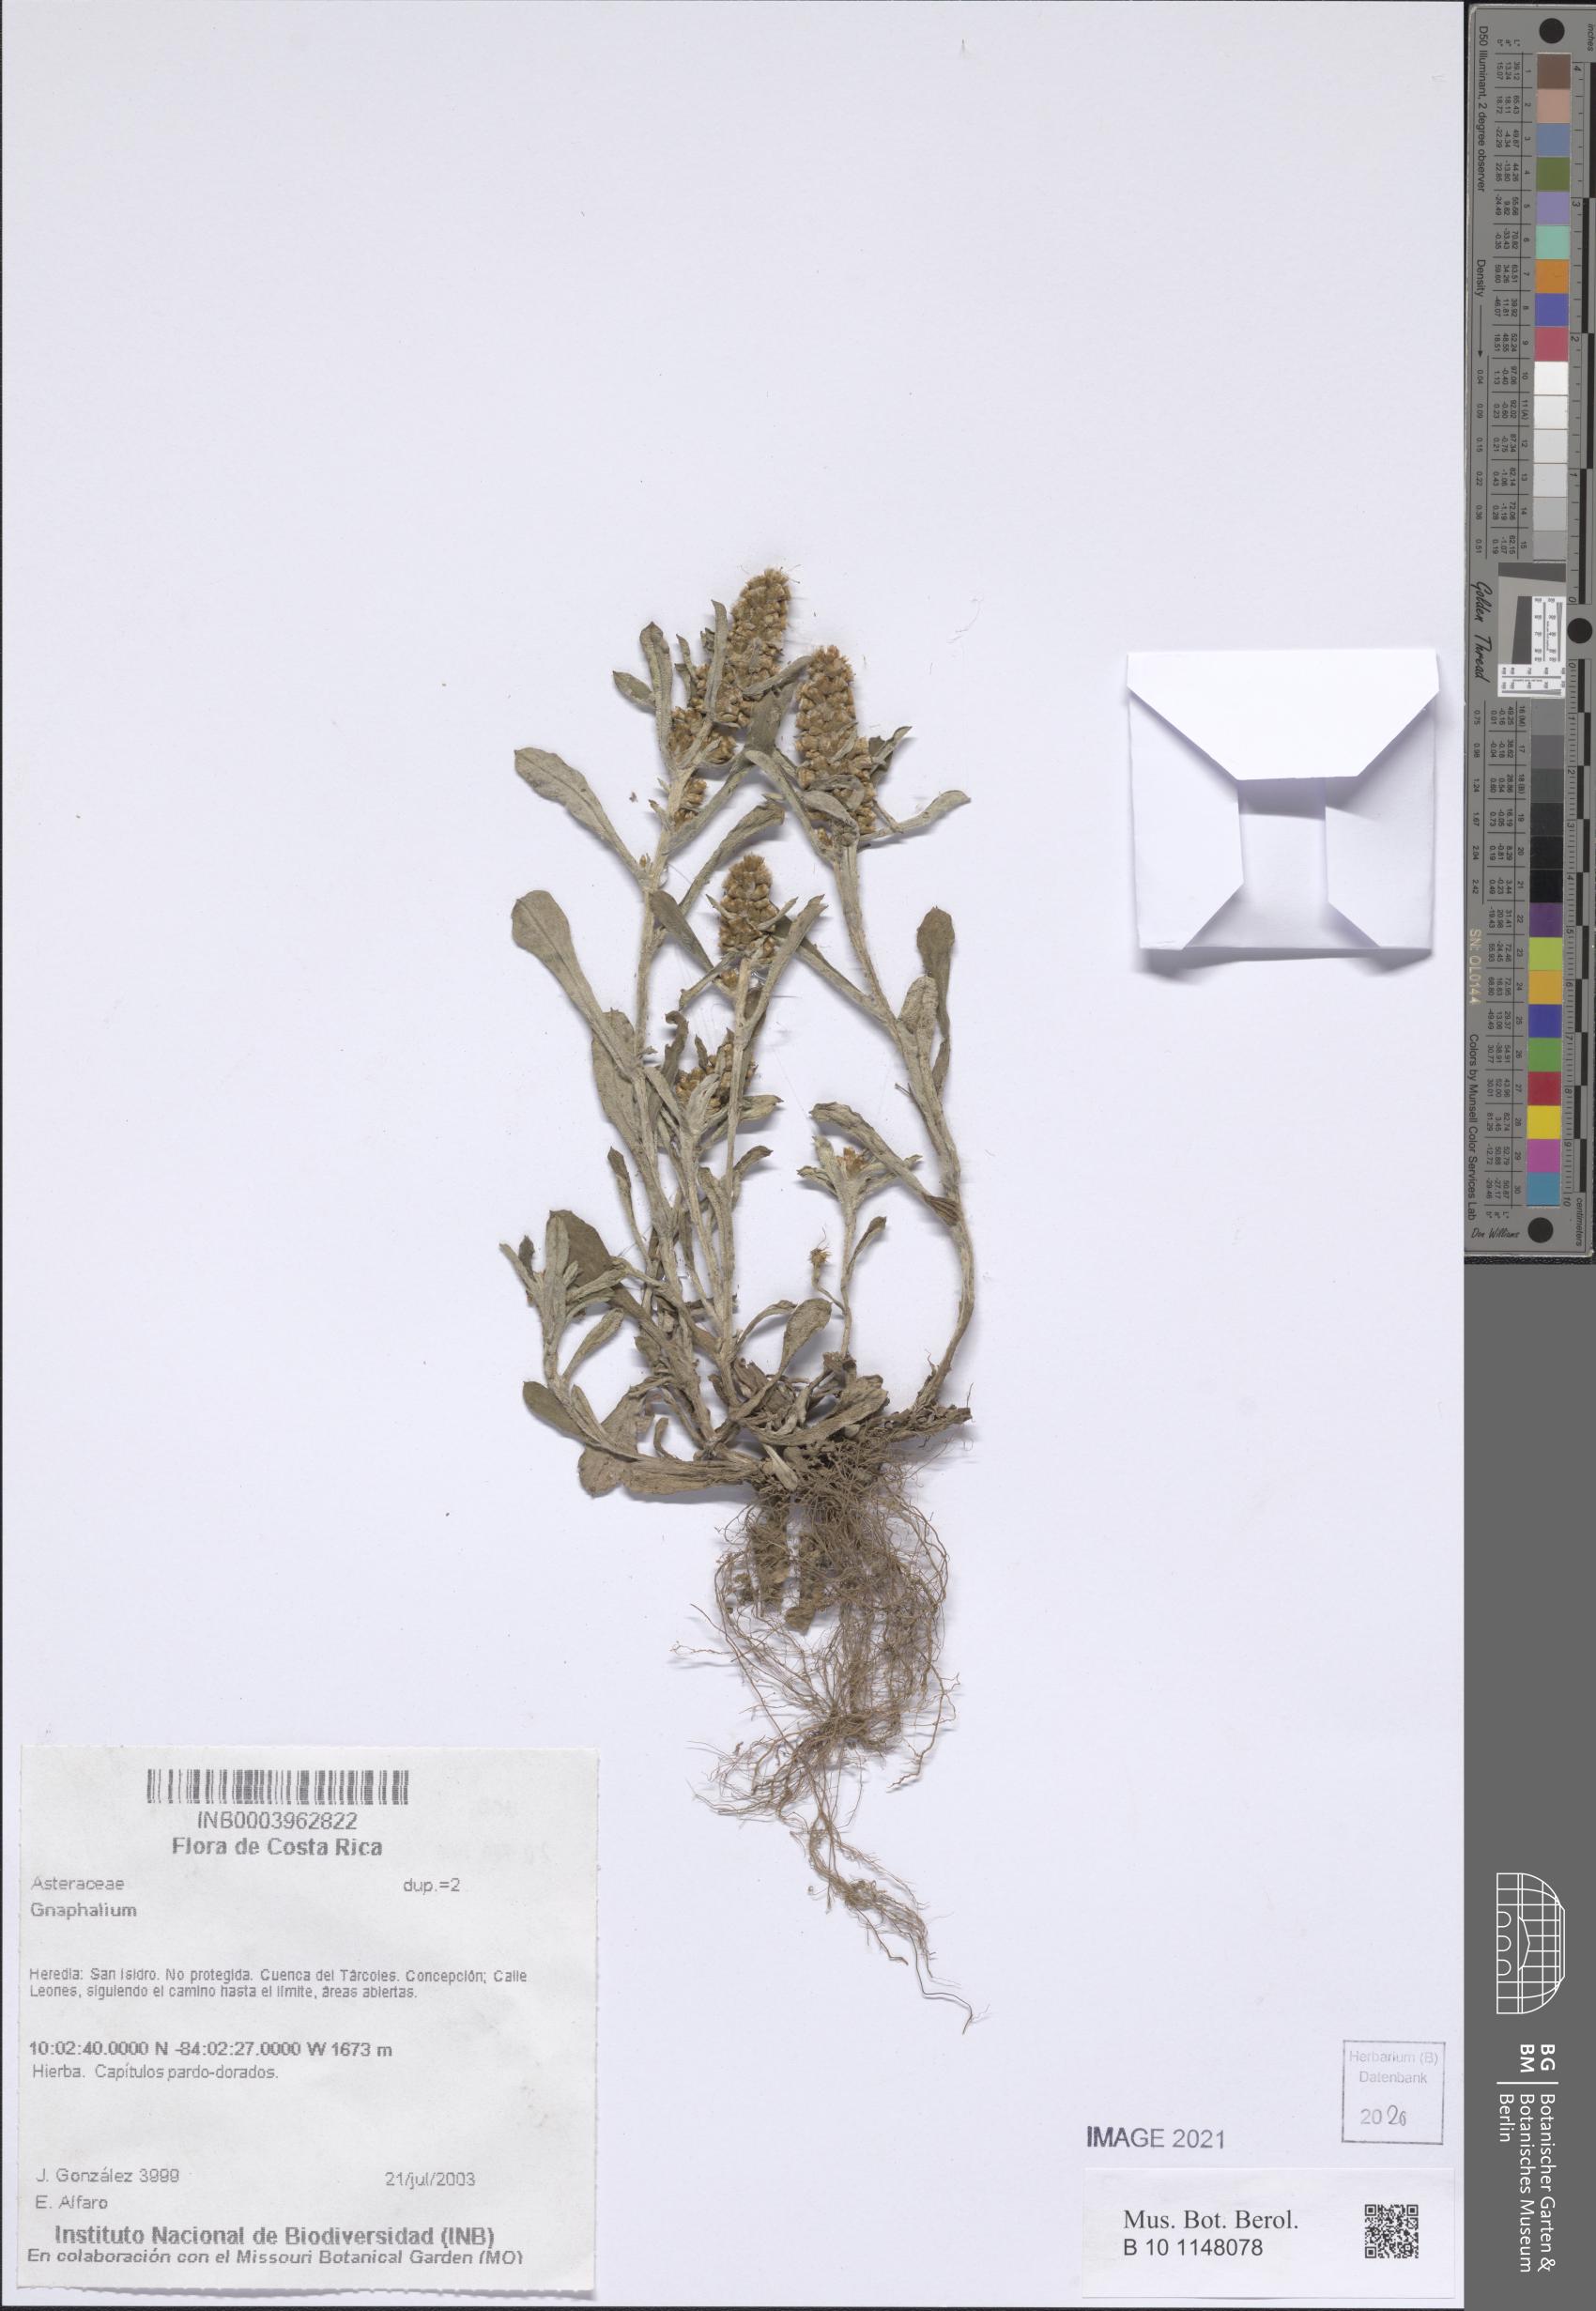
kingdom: Plantae
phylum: Tracheophyta
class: Magnoliopsida
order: Asterales
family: Asteraceae
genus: Gnaphalium
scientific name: Gnaphalium
